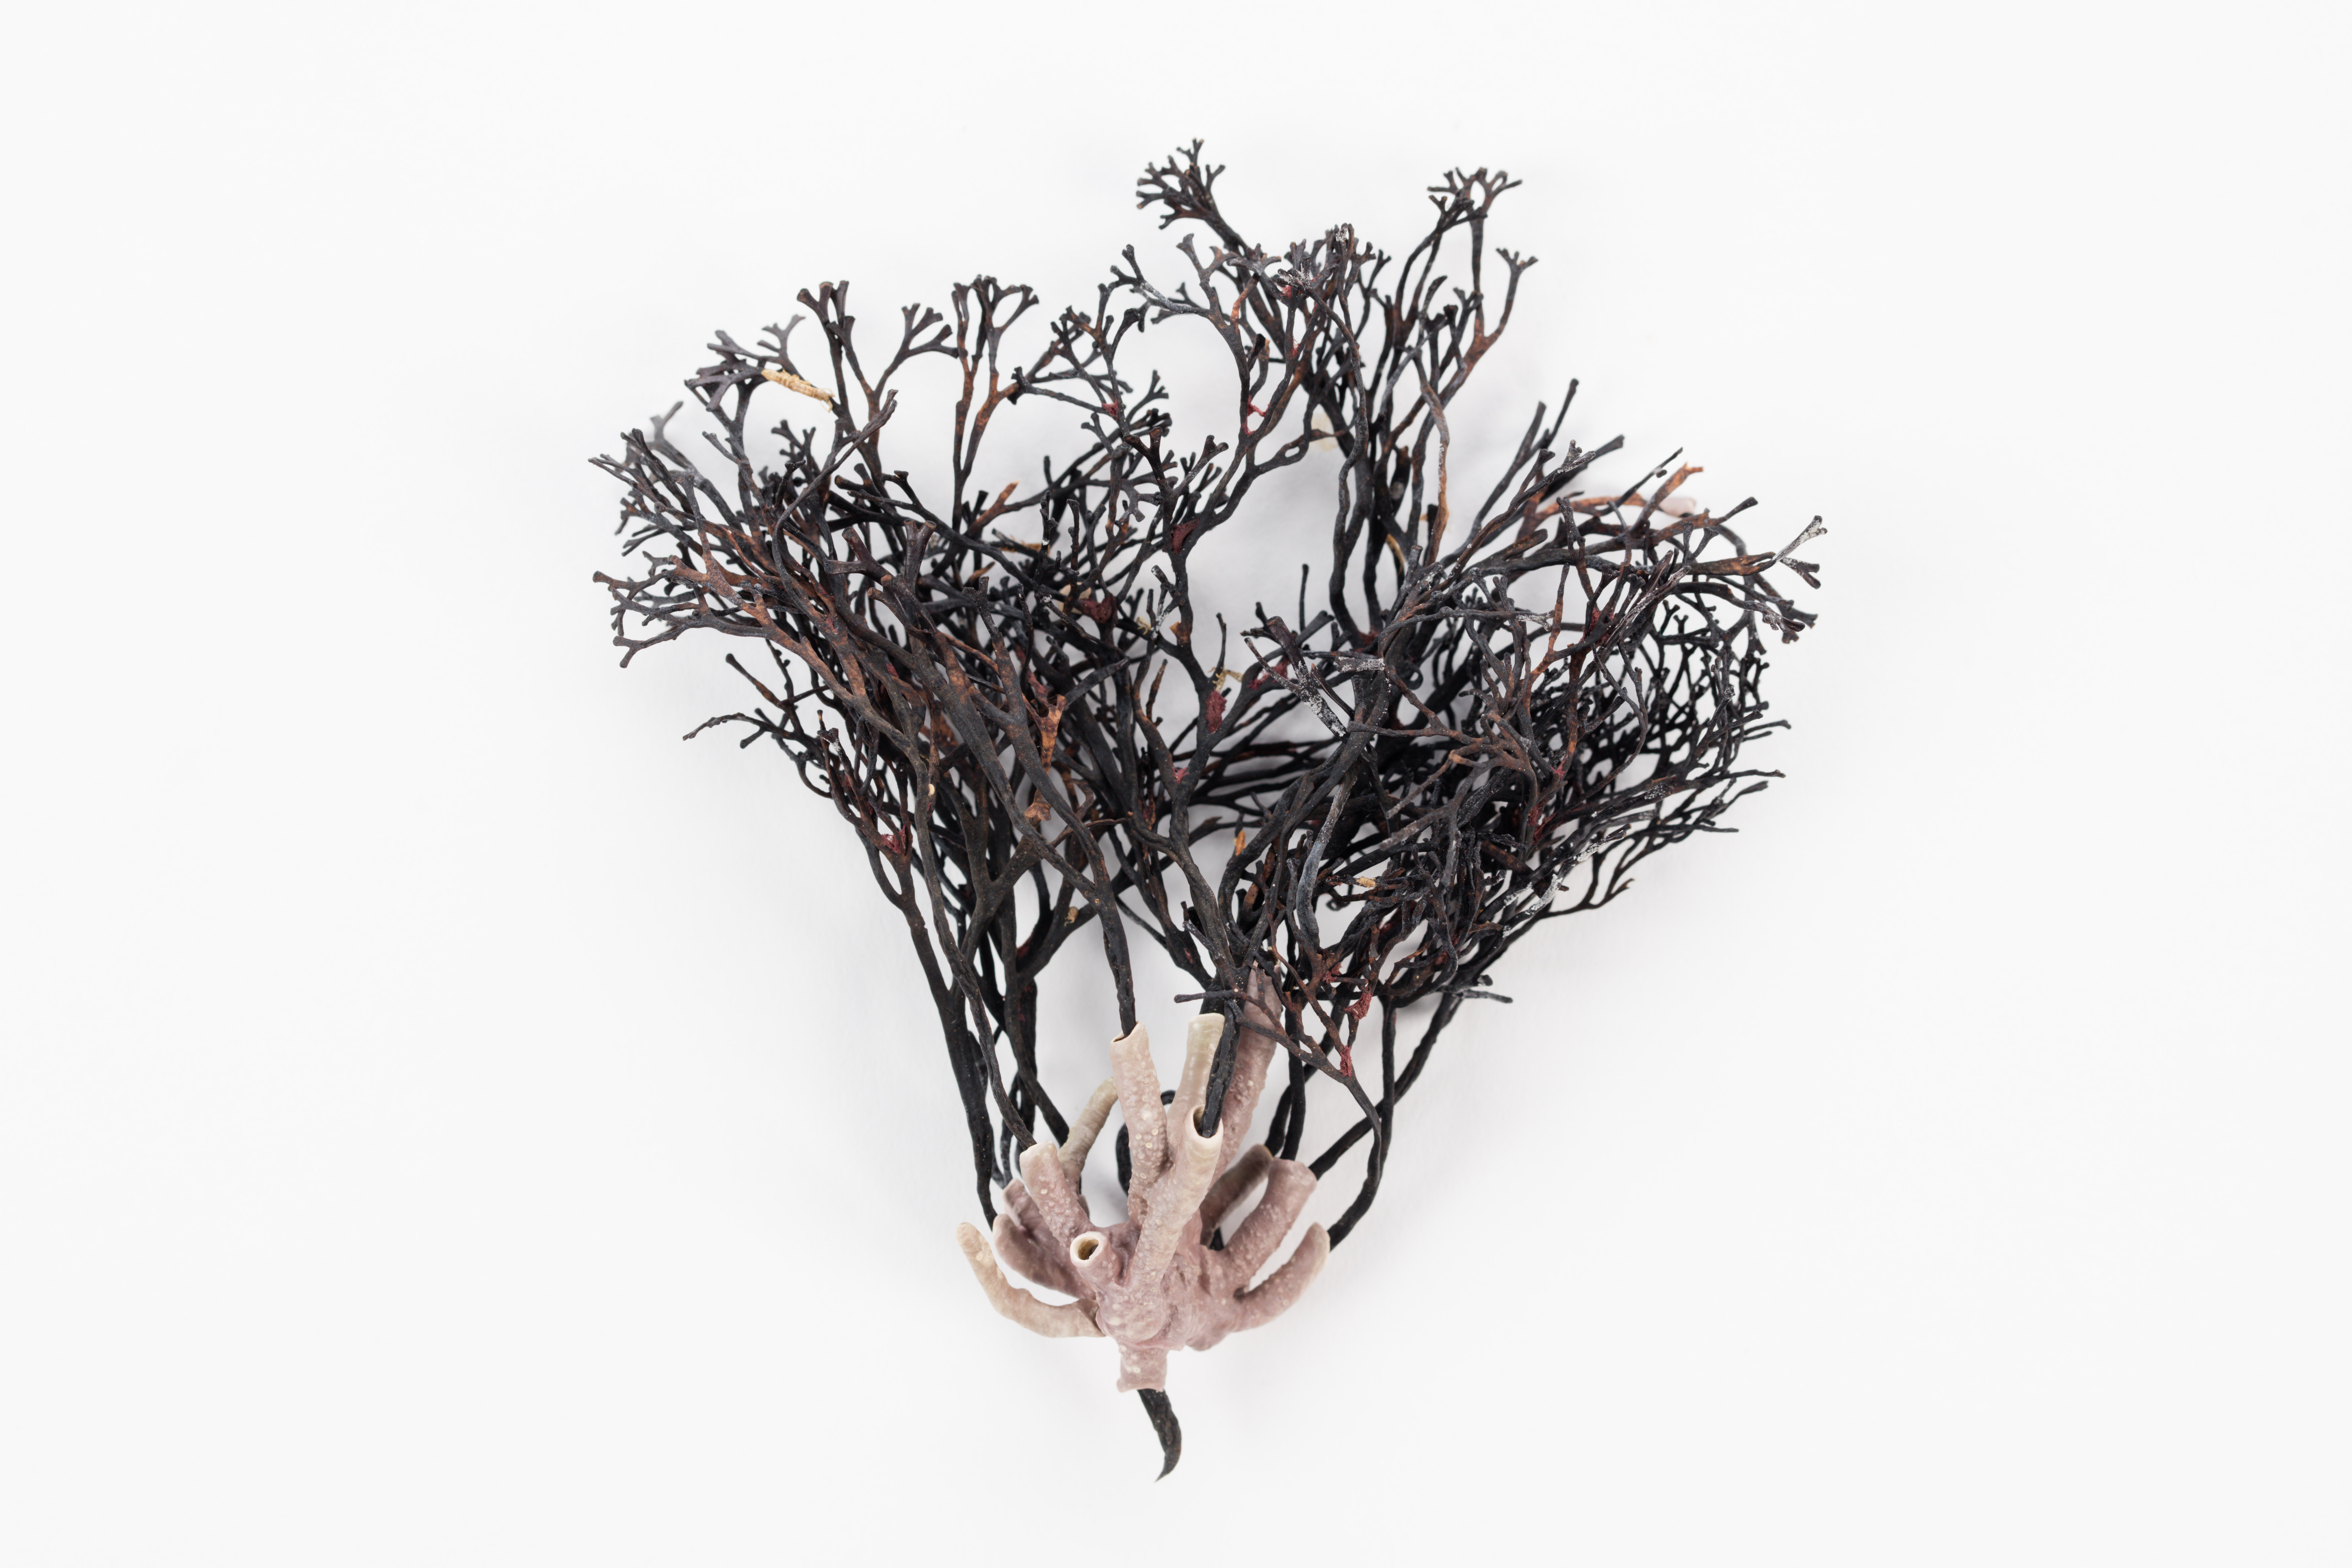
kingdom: Plantae
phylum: Rhodophyta
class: Florideophyceae
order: Corallinales
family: Lithophyllaceae
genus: Tenarea
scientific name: Tenarea
